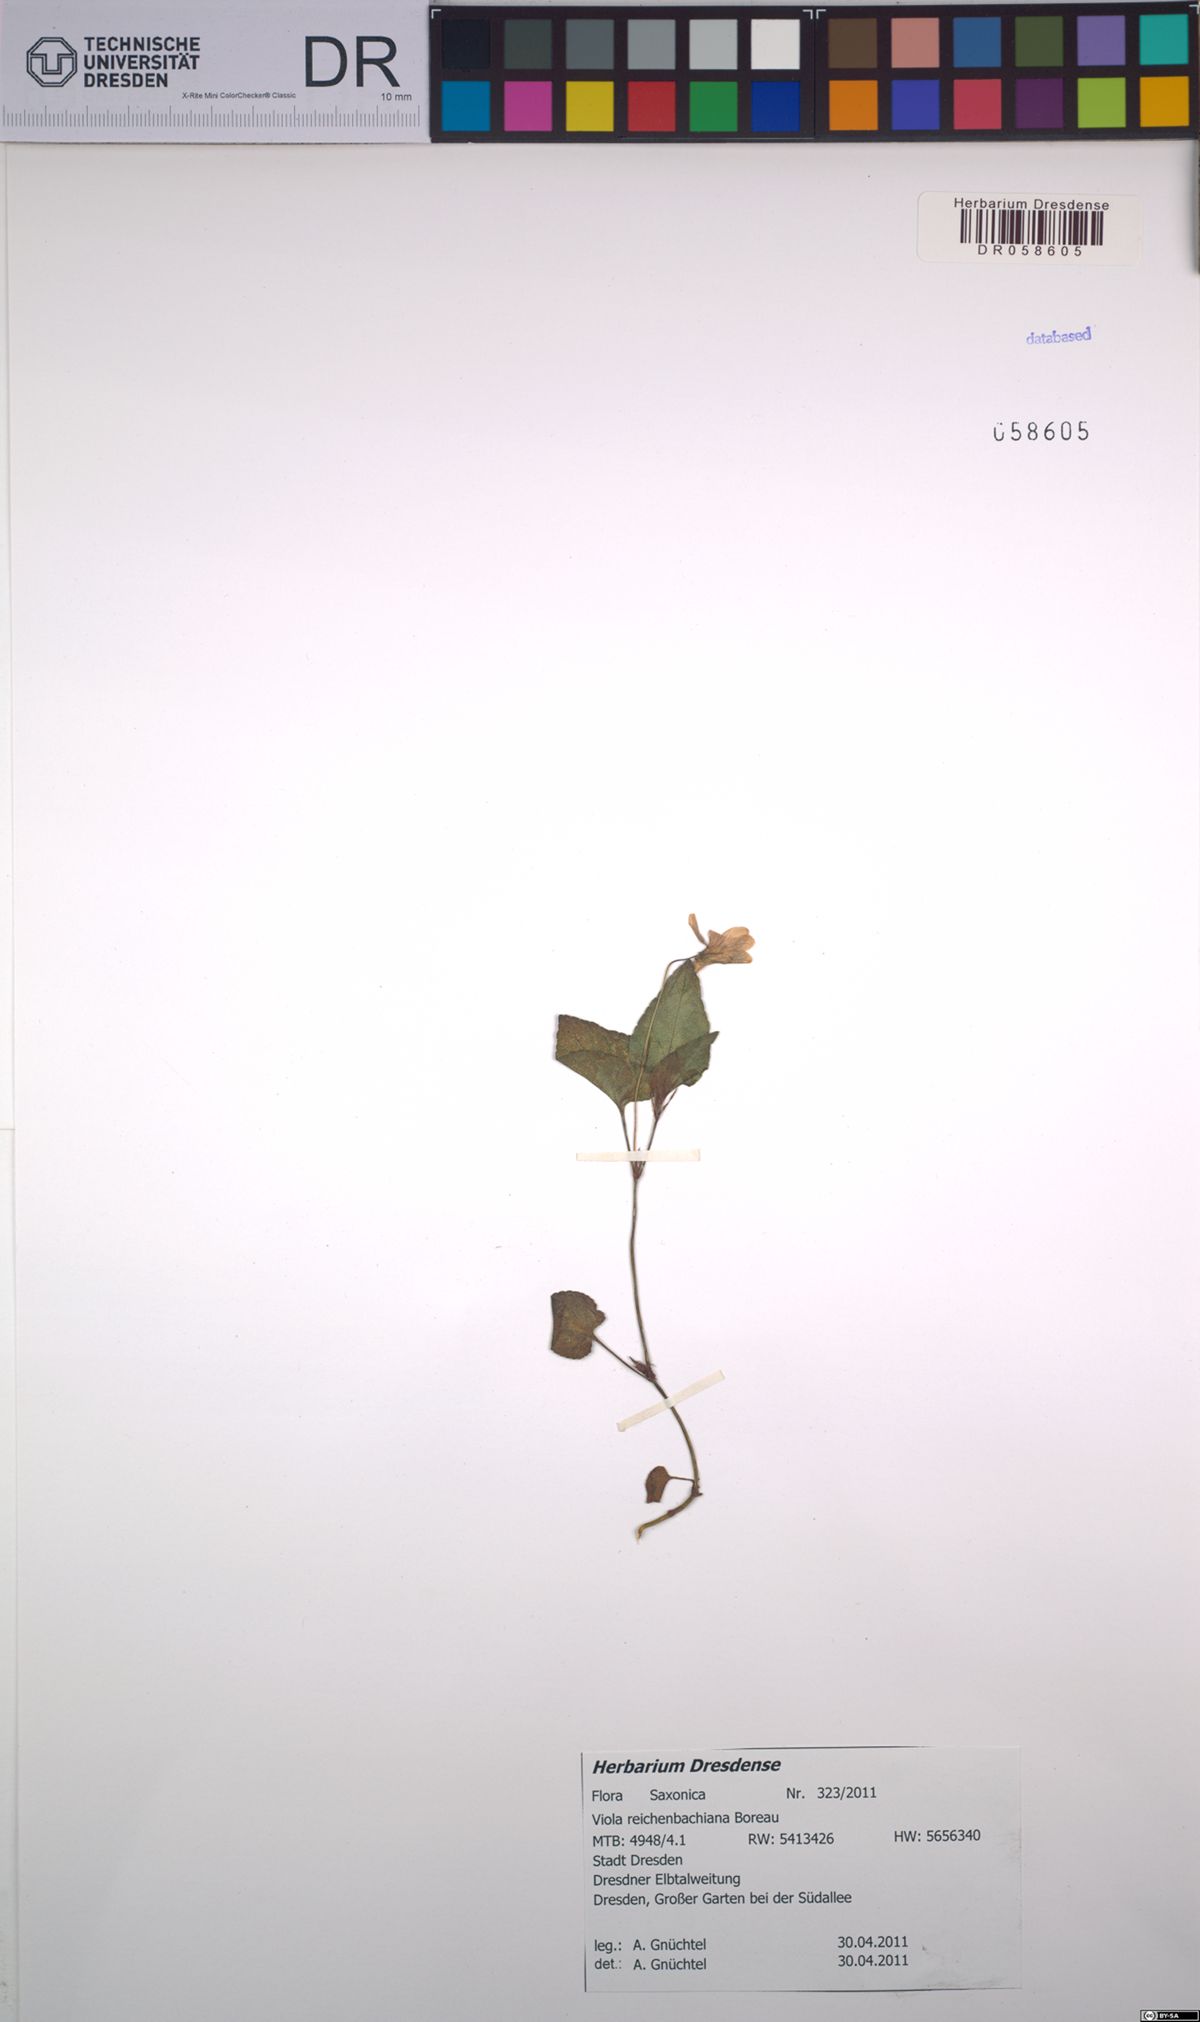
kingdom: Plantae
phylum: Tracheophyta
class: Magnoliopsida
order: Malpighiales
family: Violaceae
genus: Viola
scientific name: Viola reichenbachiana
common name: Early dog-violet
